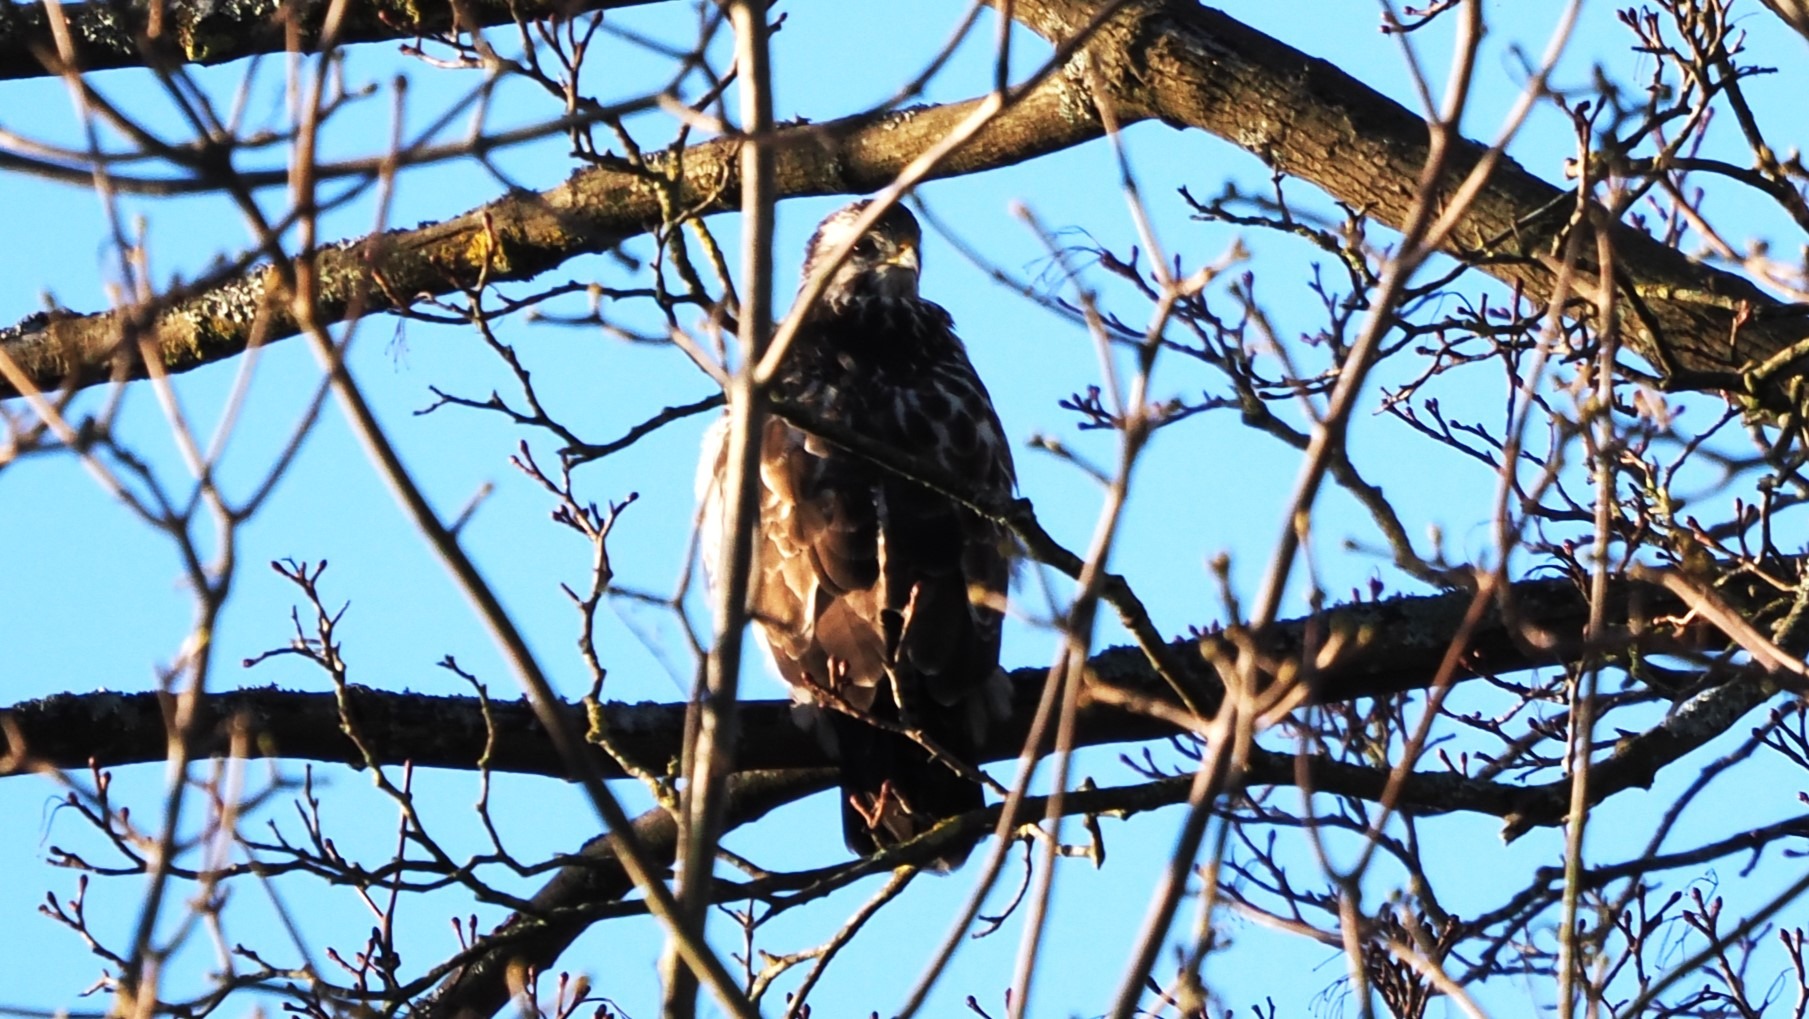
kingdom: Animalia
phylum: Chordata
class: Aves
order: Accipitriformes
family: Accipitridae
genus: Buteo
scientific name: Buteo buteo
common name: Musvåge
